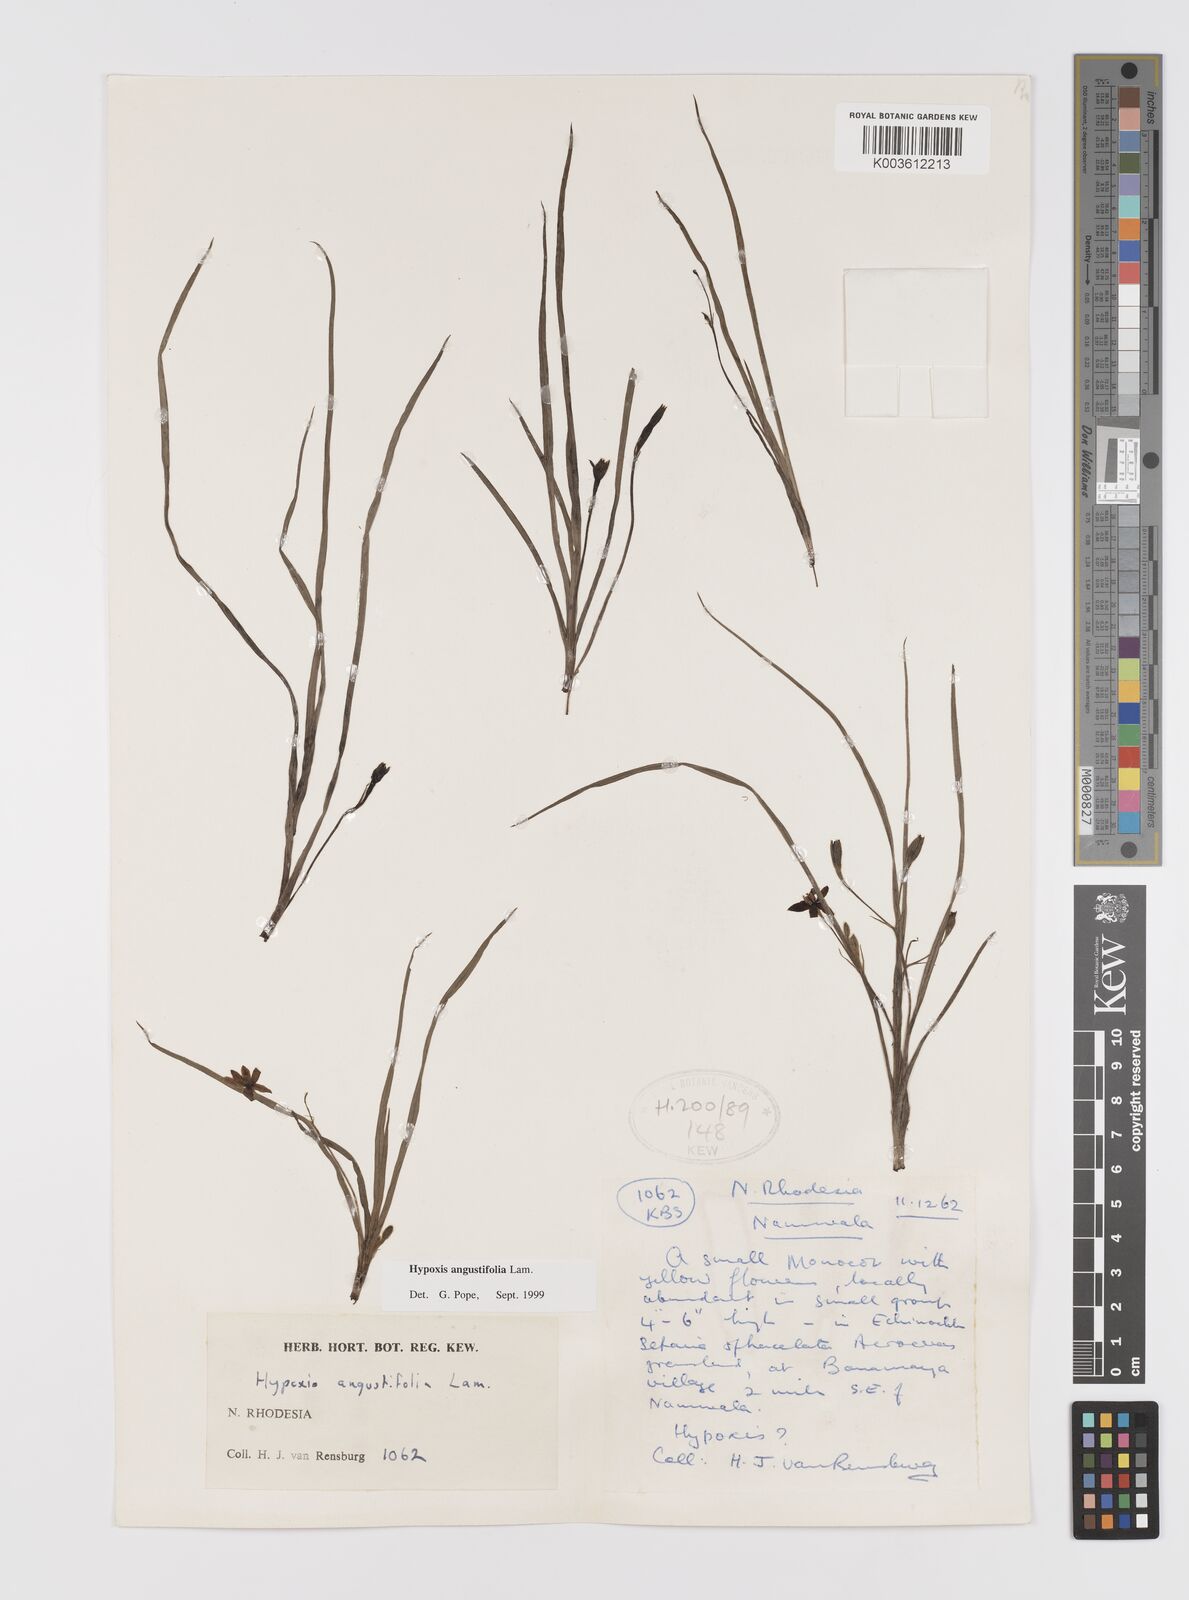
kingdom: Plantae
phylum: Tracheophyta
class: Liliopsida
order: Asparagales
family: Hypoxidaceae
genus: Hypoxis
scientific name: Hypoxis angustifolia
